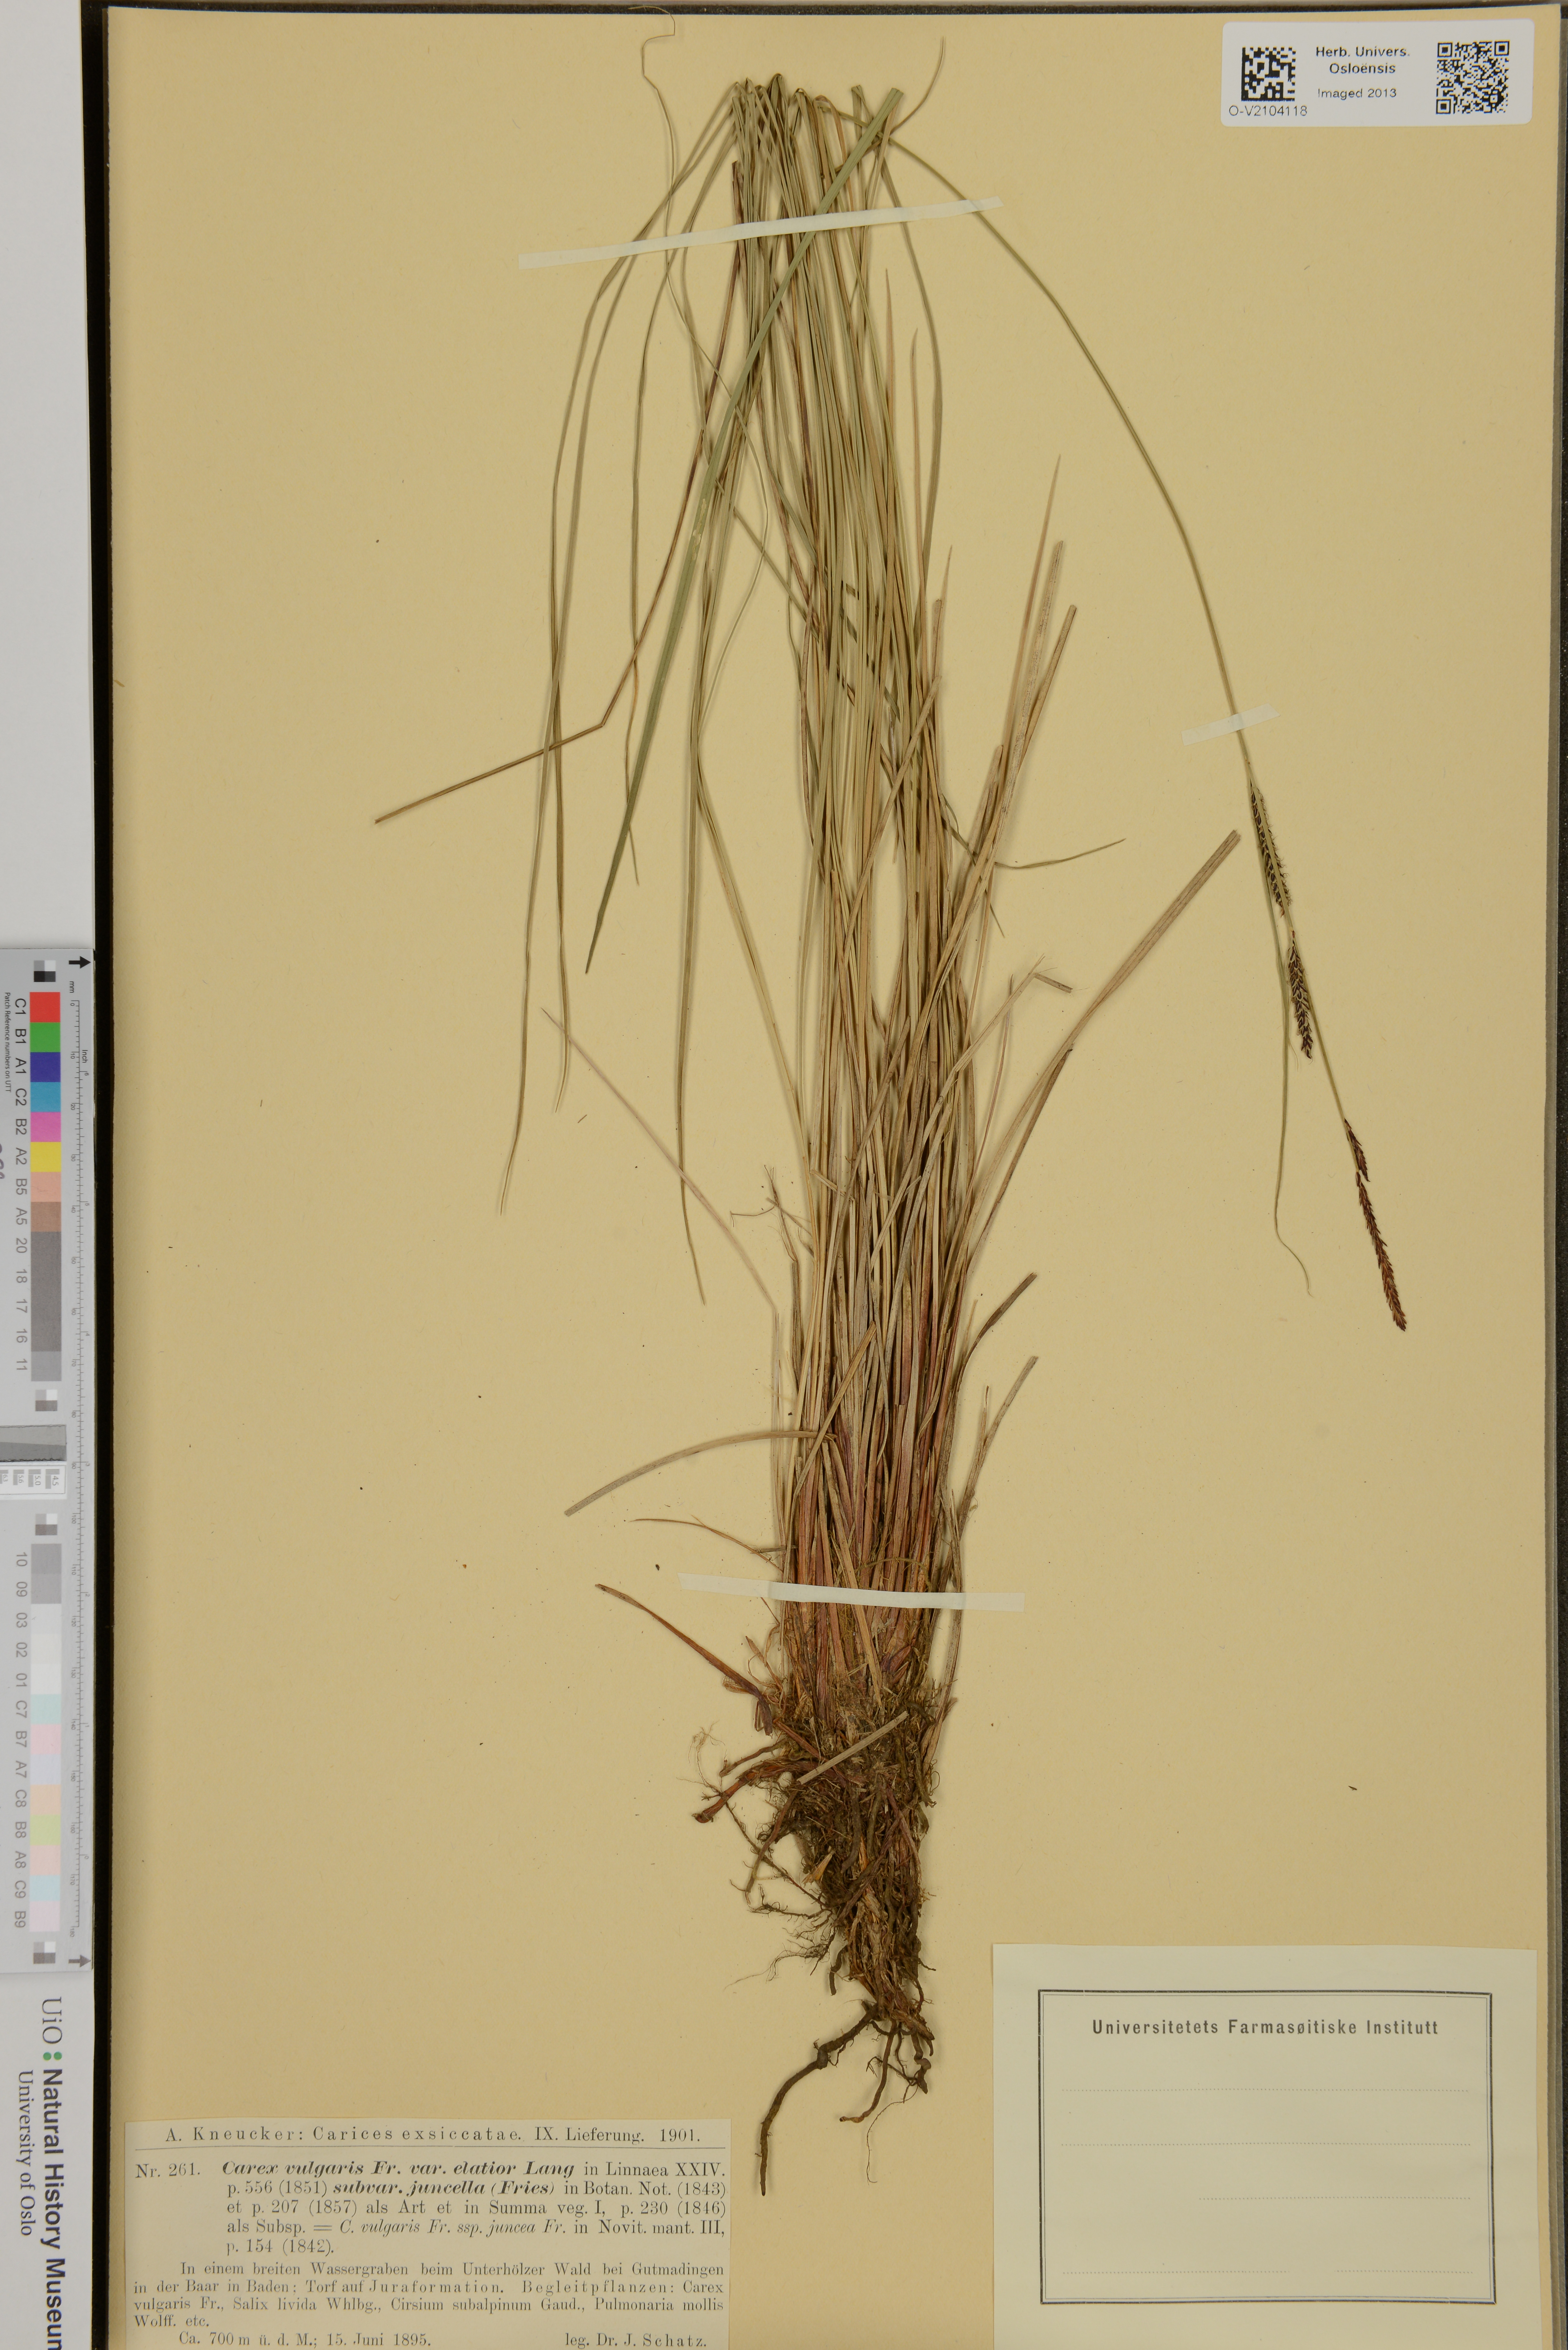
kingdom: Plantae
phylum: Tracheophyta
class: Liliopsida
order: Poales
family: Cyperaceae
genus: Carex
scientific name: Carex nigra
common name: Common sedge
